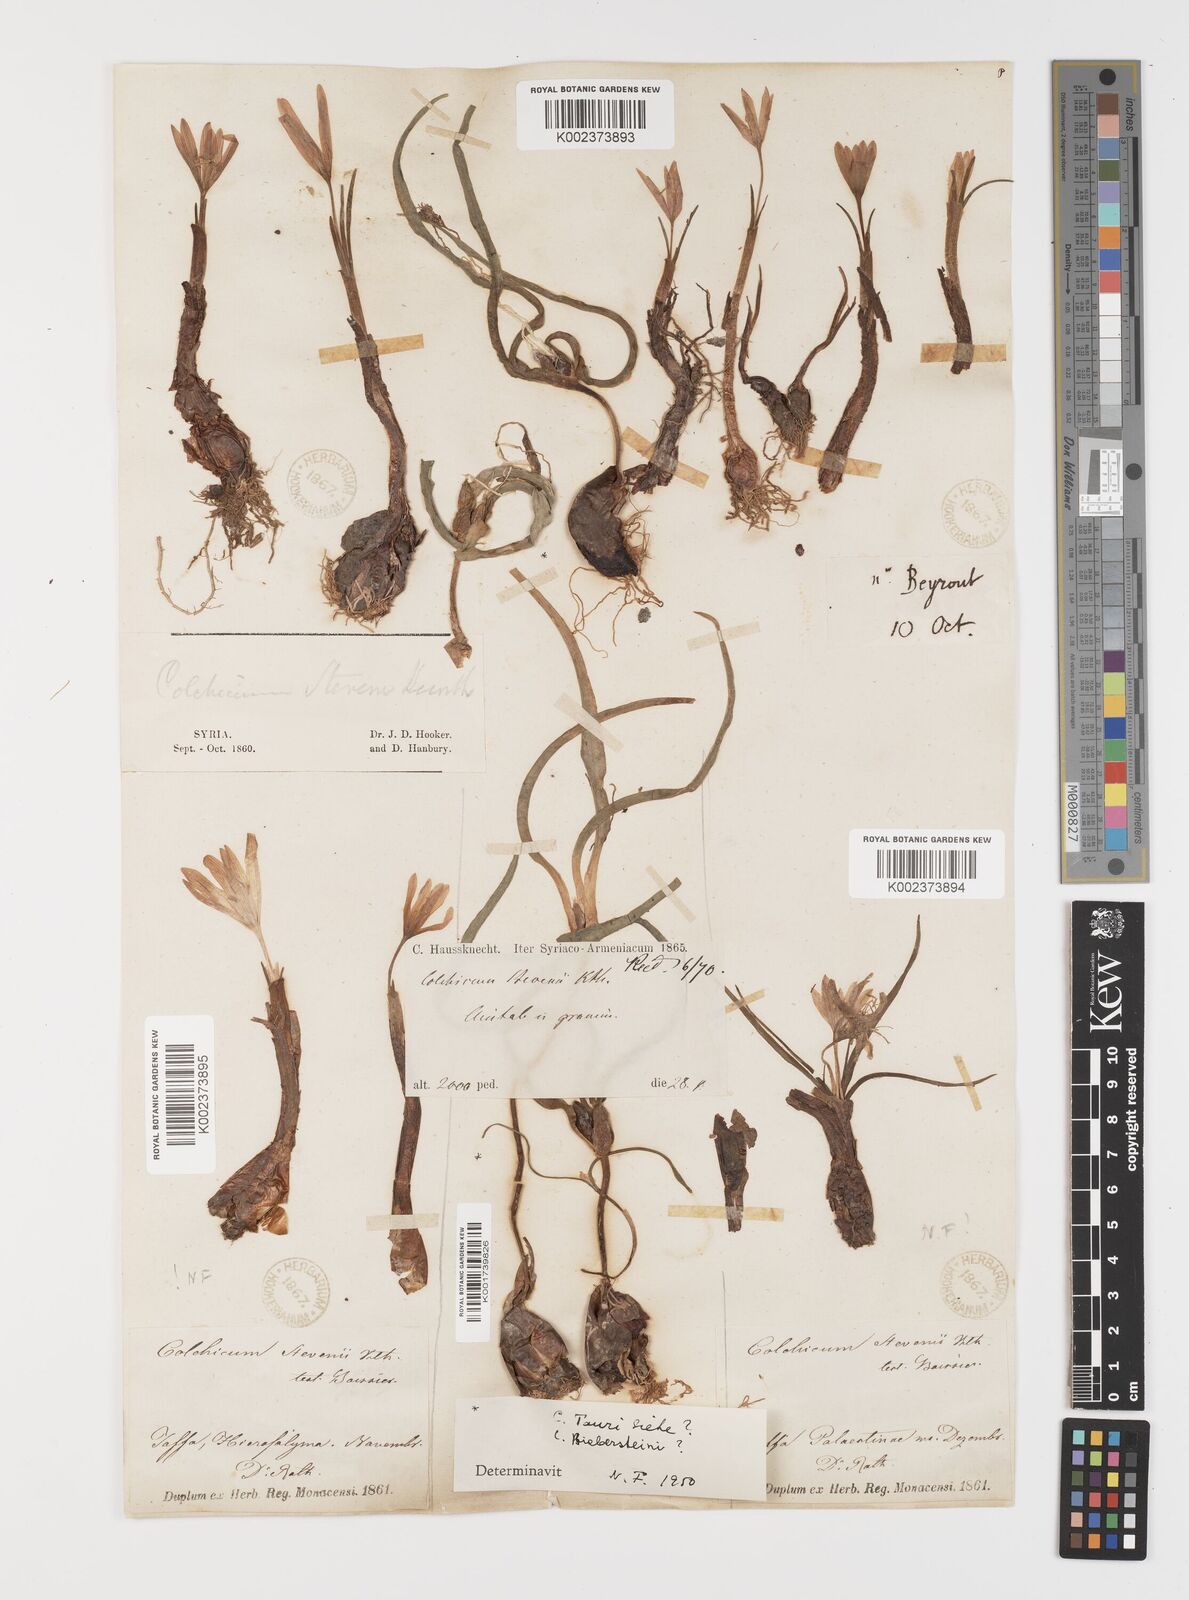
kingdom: Plantae
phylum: Tracheophyta
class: Liliopsida
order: Liliales
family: Colchicaceae
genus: Colchicum
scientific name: Colchicum stevenii
